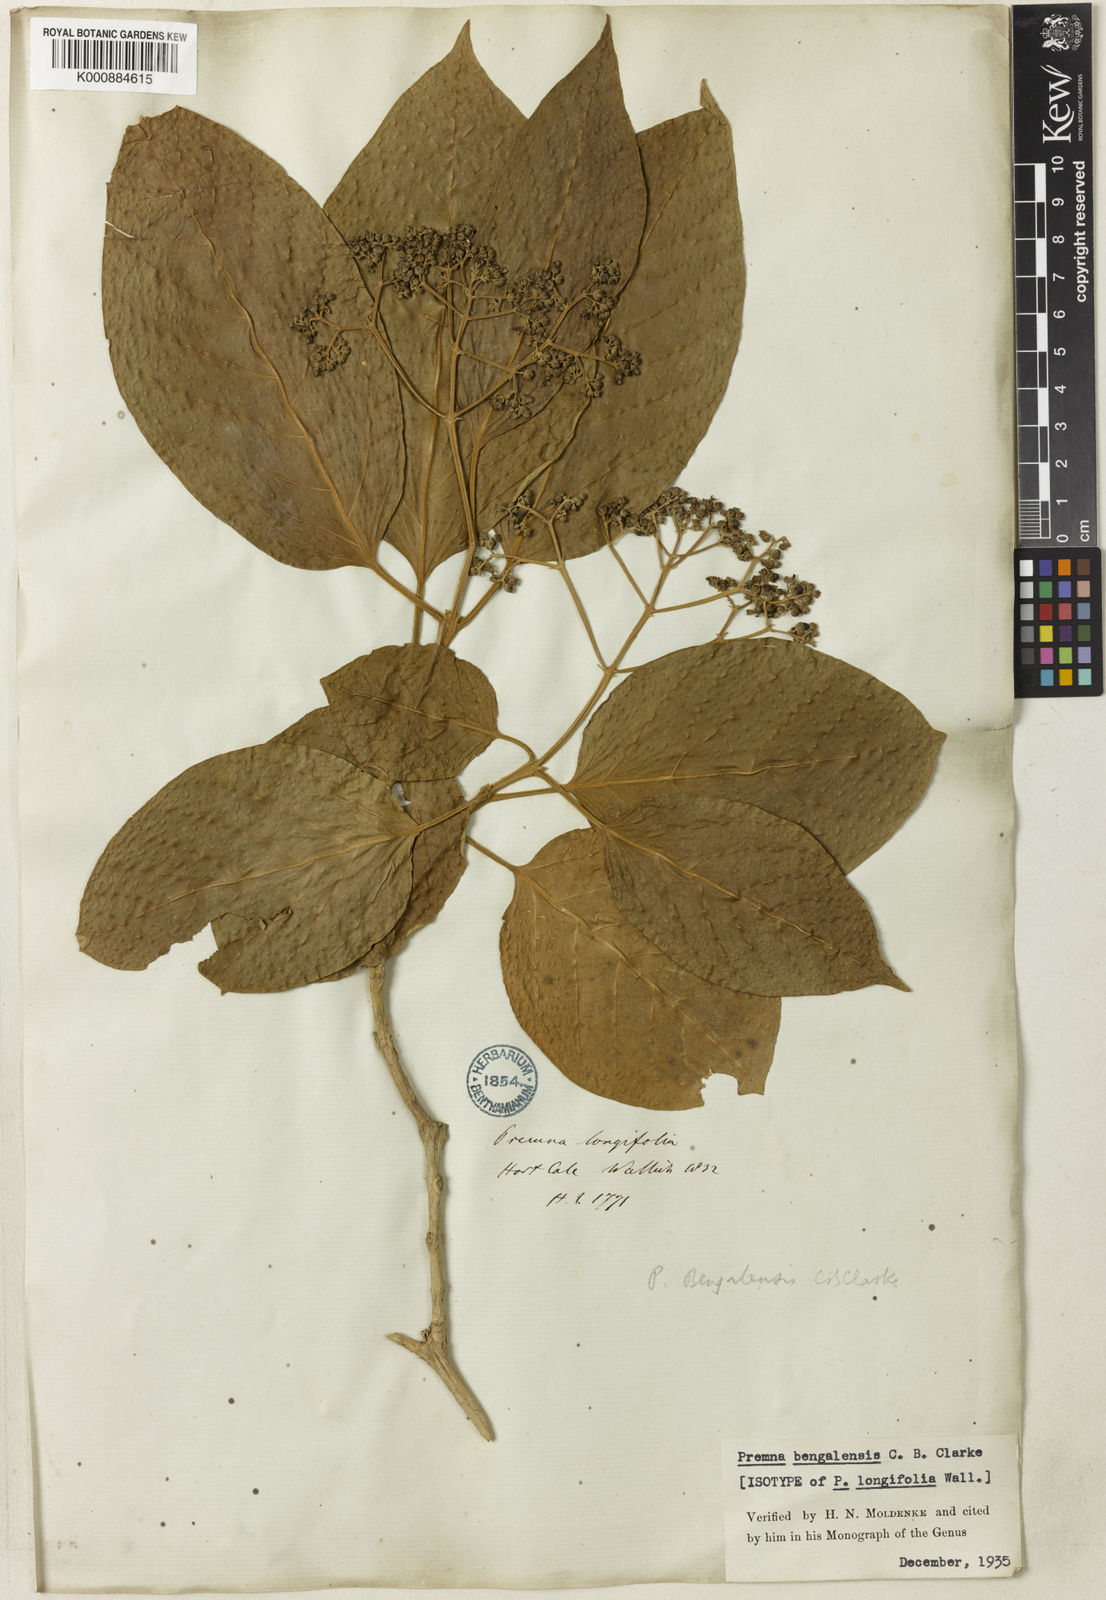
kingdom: Plantae
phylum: Tracheophyta
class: Magnoliopsida
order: Lamiales
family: Lamiaceae
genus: Premna
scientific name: Premna bengalensis
